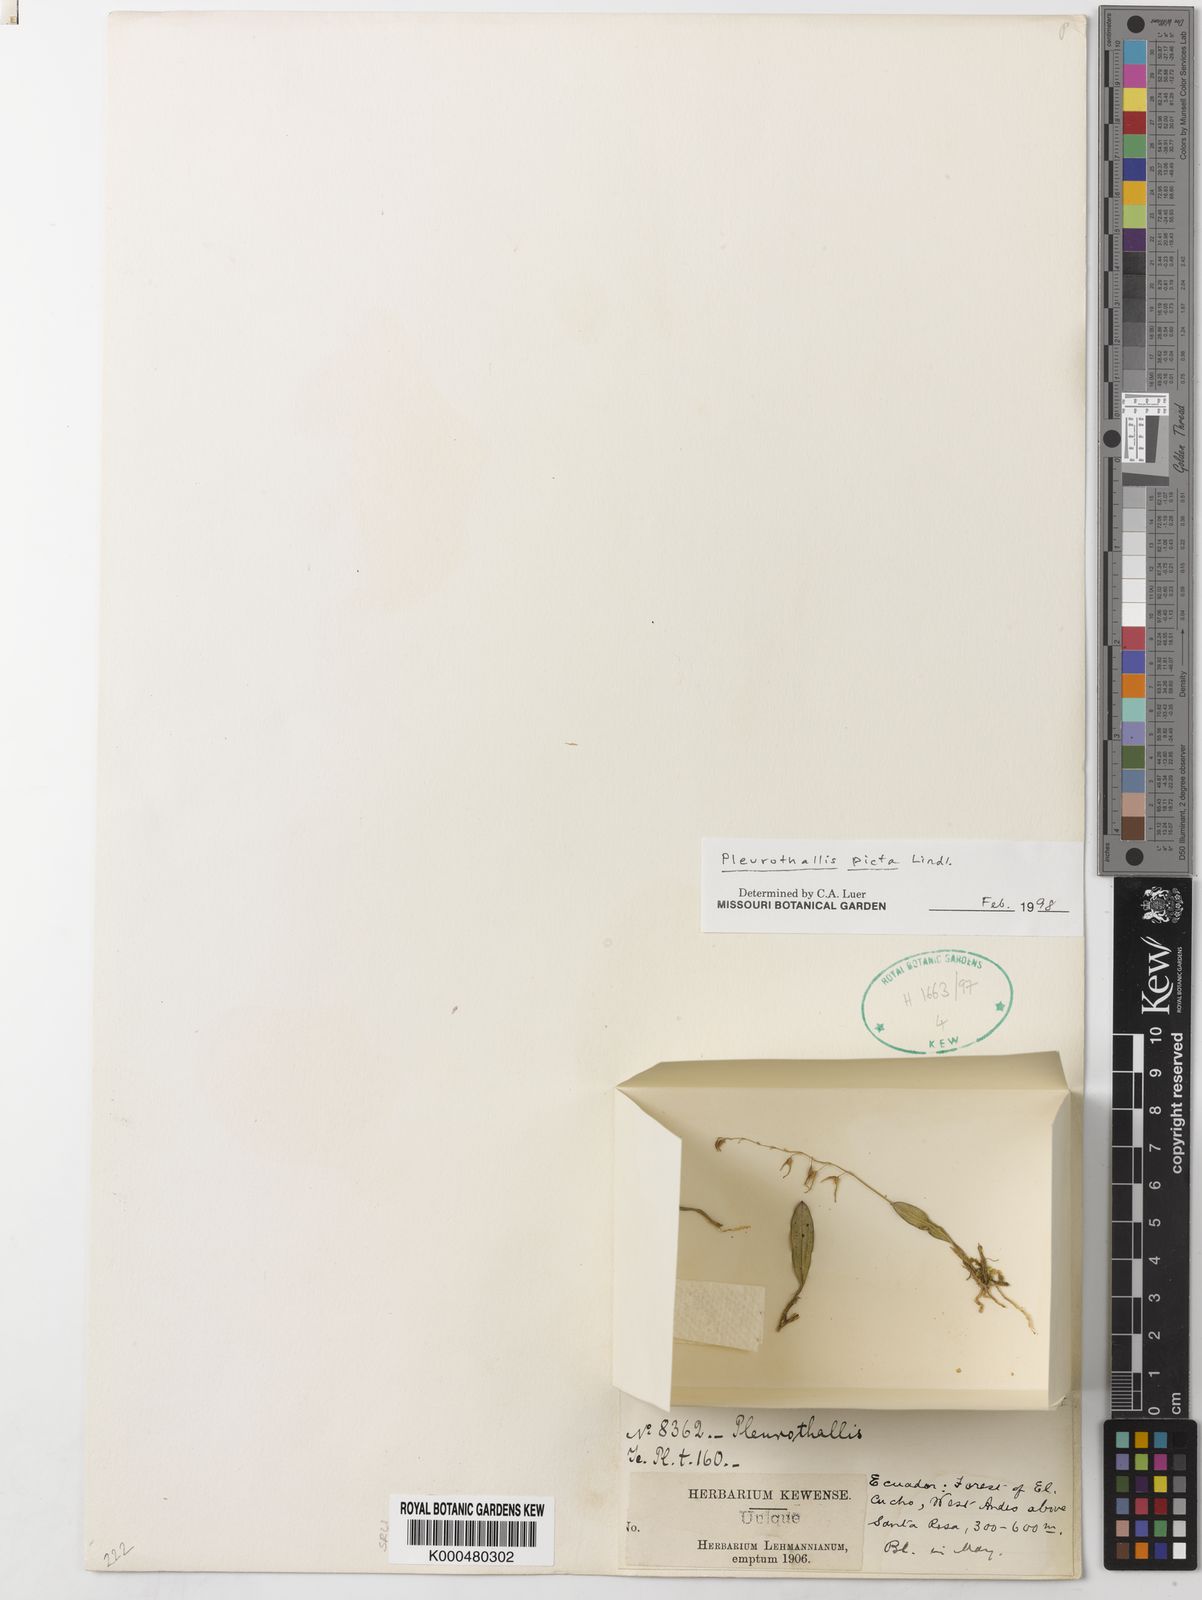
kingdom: Plantae
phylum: Tracheophyta
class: Liliopsida
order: Asparagales
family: Orchidaceae
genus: Specklinia
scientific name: Specklinia picta
